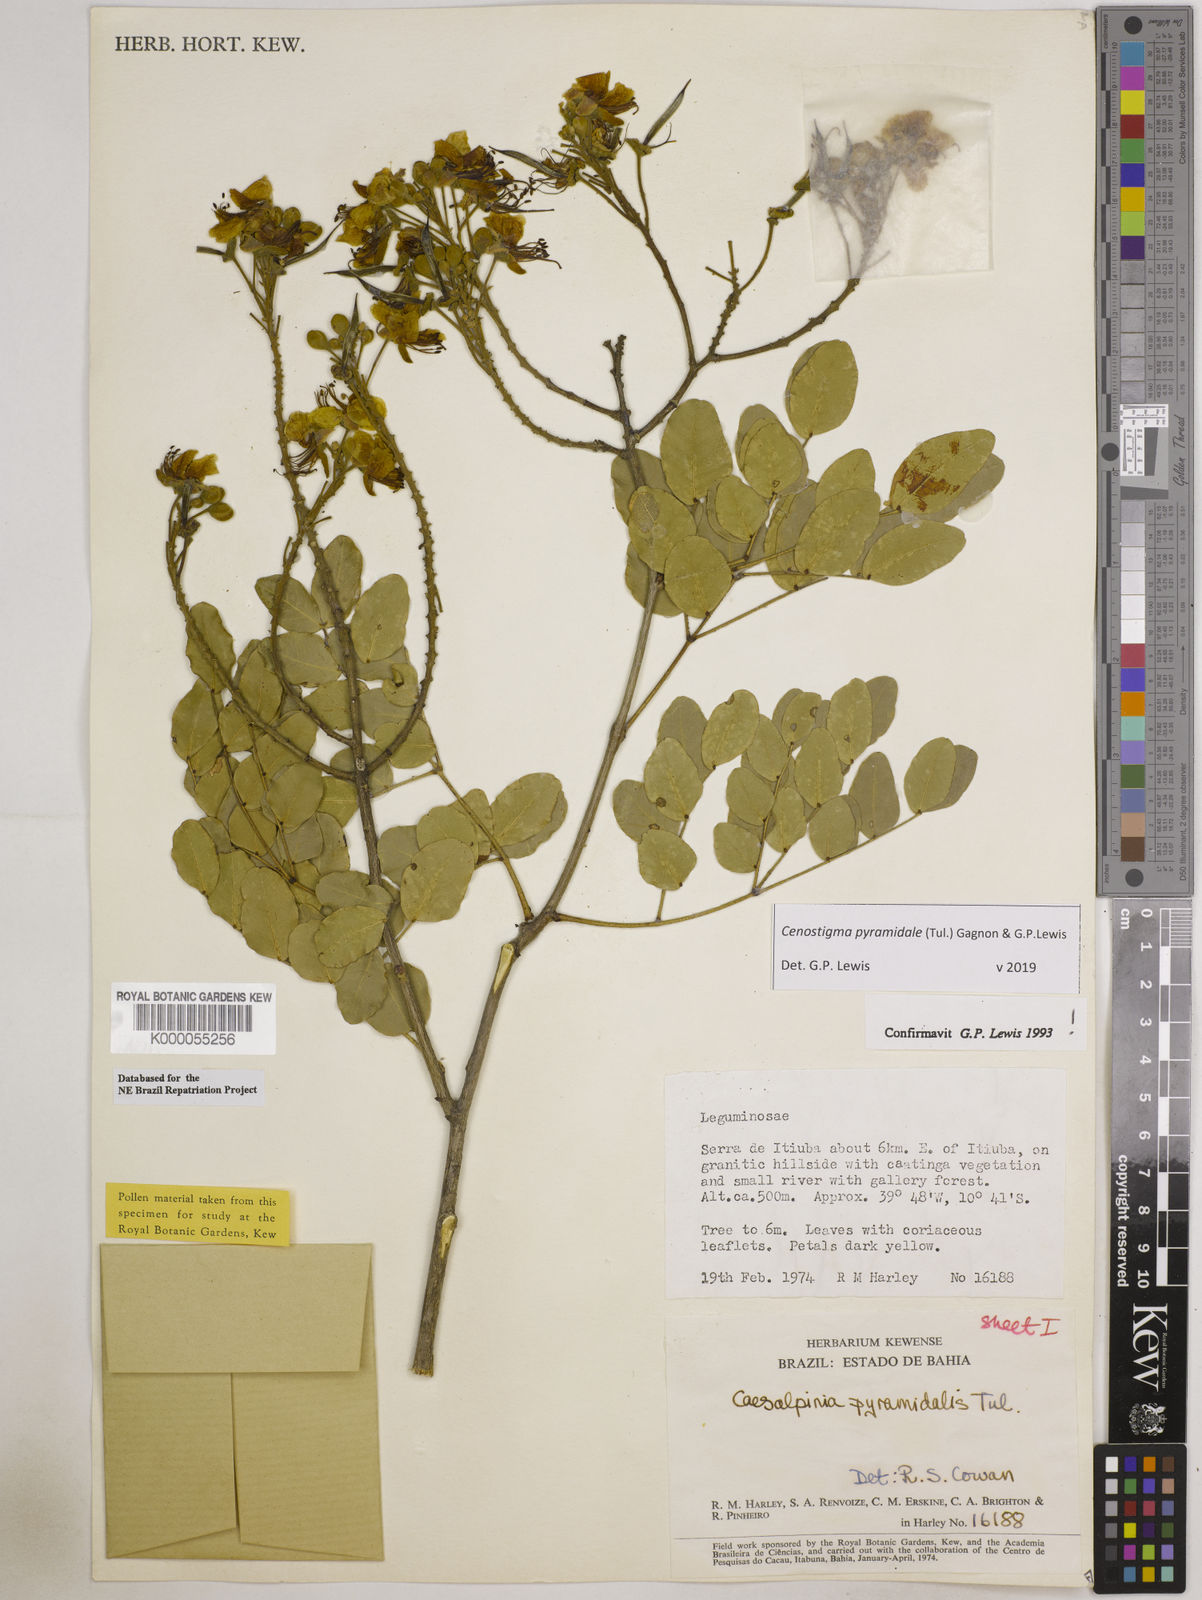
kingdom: Plantae
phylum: Tracheophyta
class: Magnoliopsida
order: Fabales
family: Fabaceae
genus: Cenostigma
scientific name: Cenostigma pyramidale
